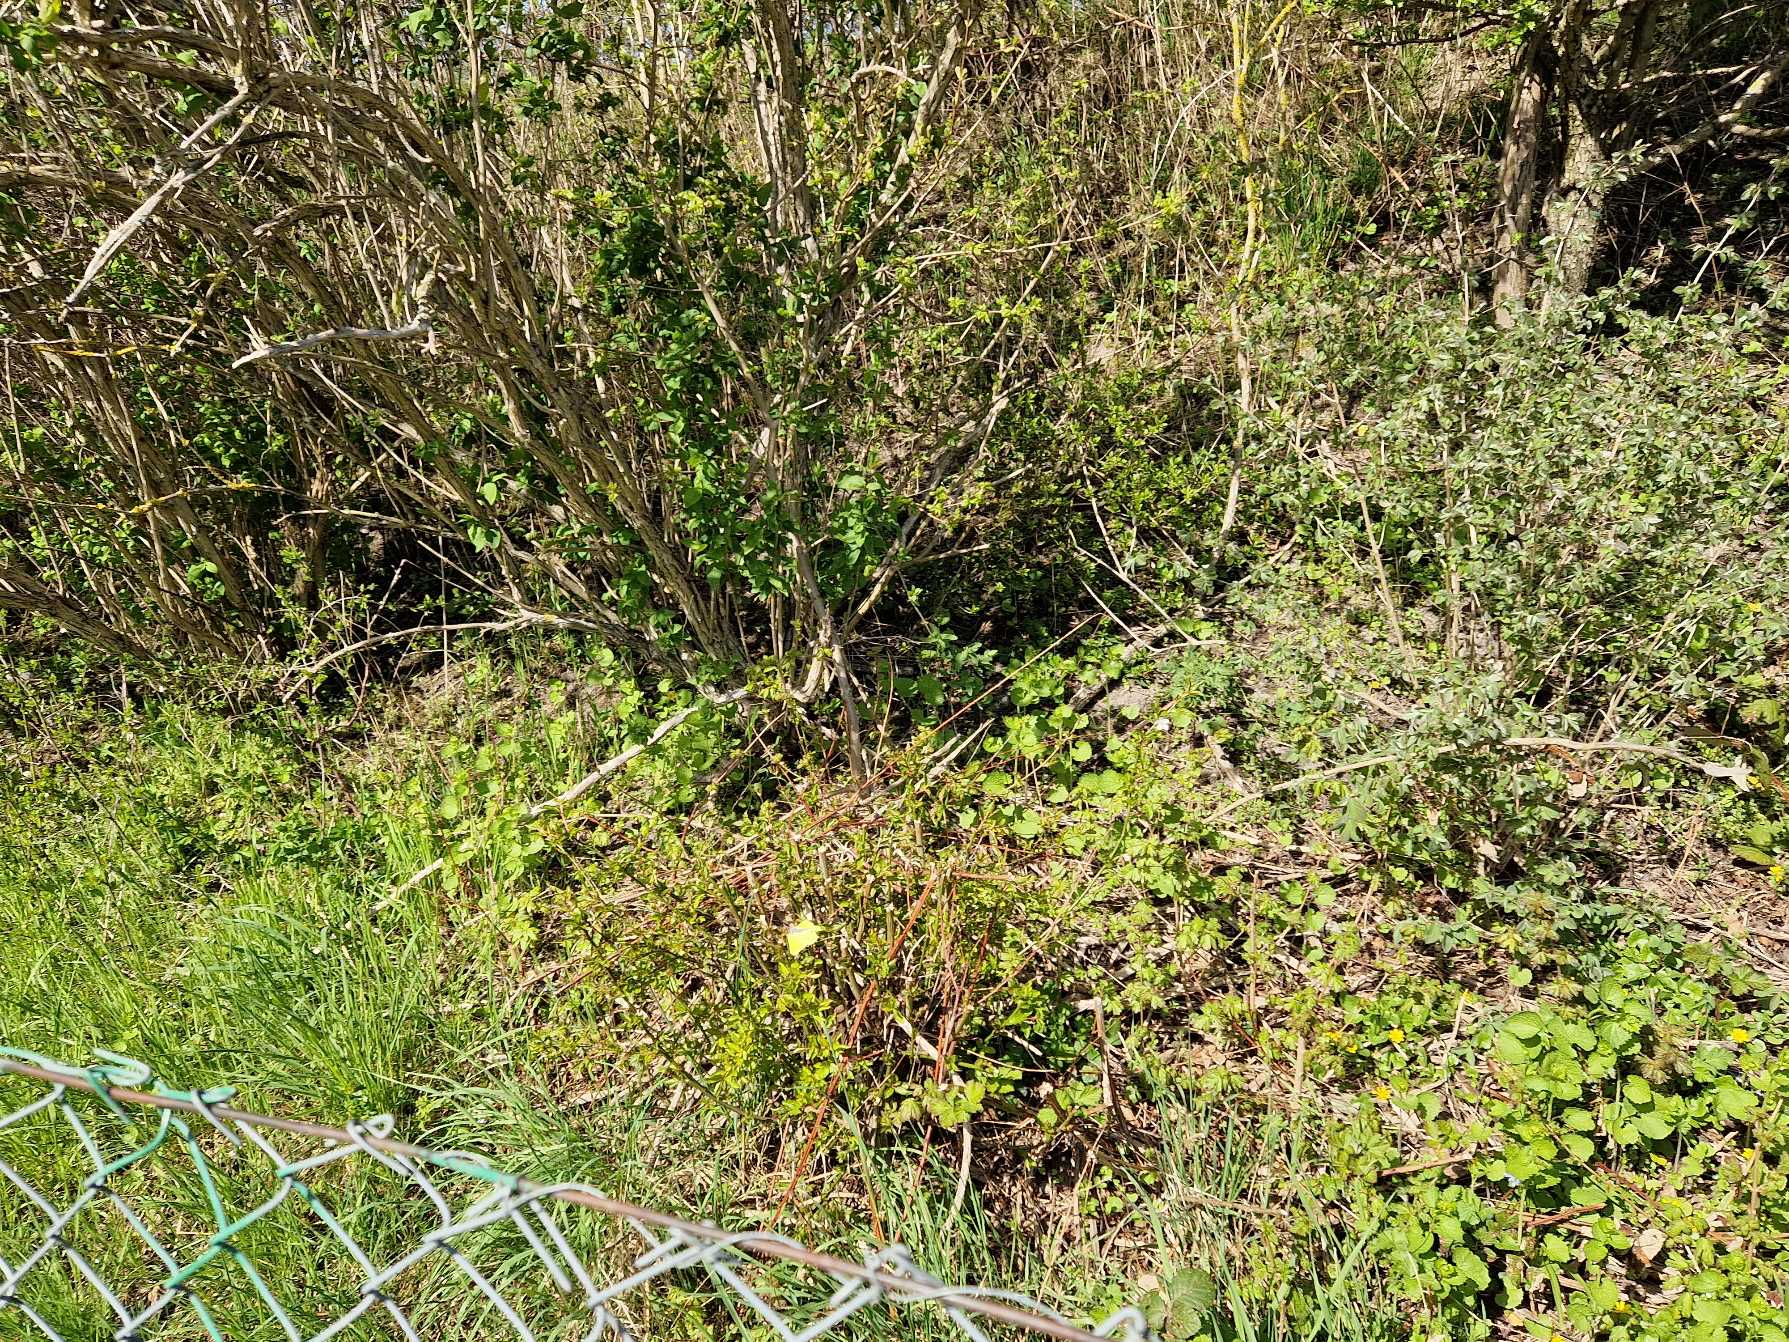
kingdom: Animalia
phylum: Arthropoda
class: Insecta
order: Lepidoptera
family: Pieridae
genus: Gonepteryx
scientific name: Gonepteryx rhamni
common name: Citronsommerfugl
